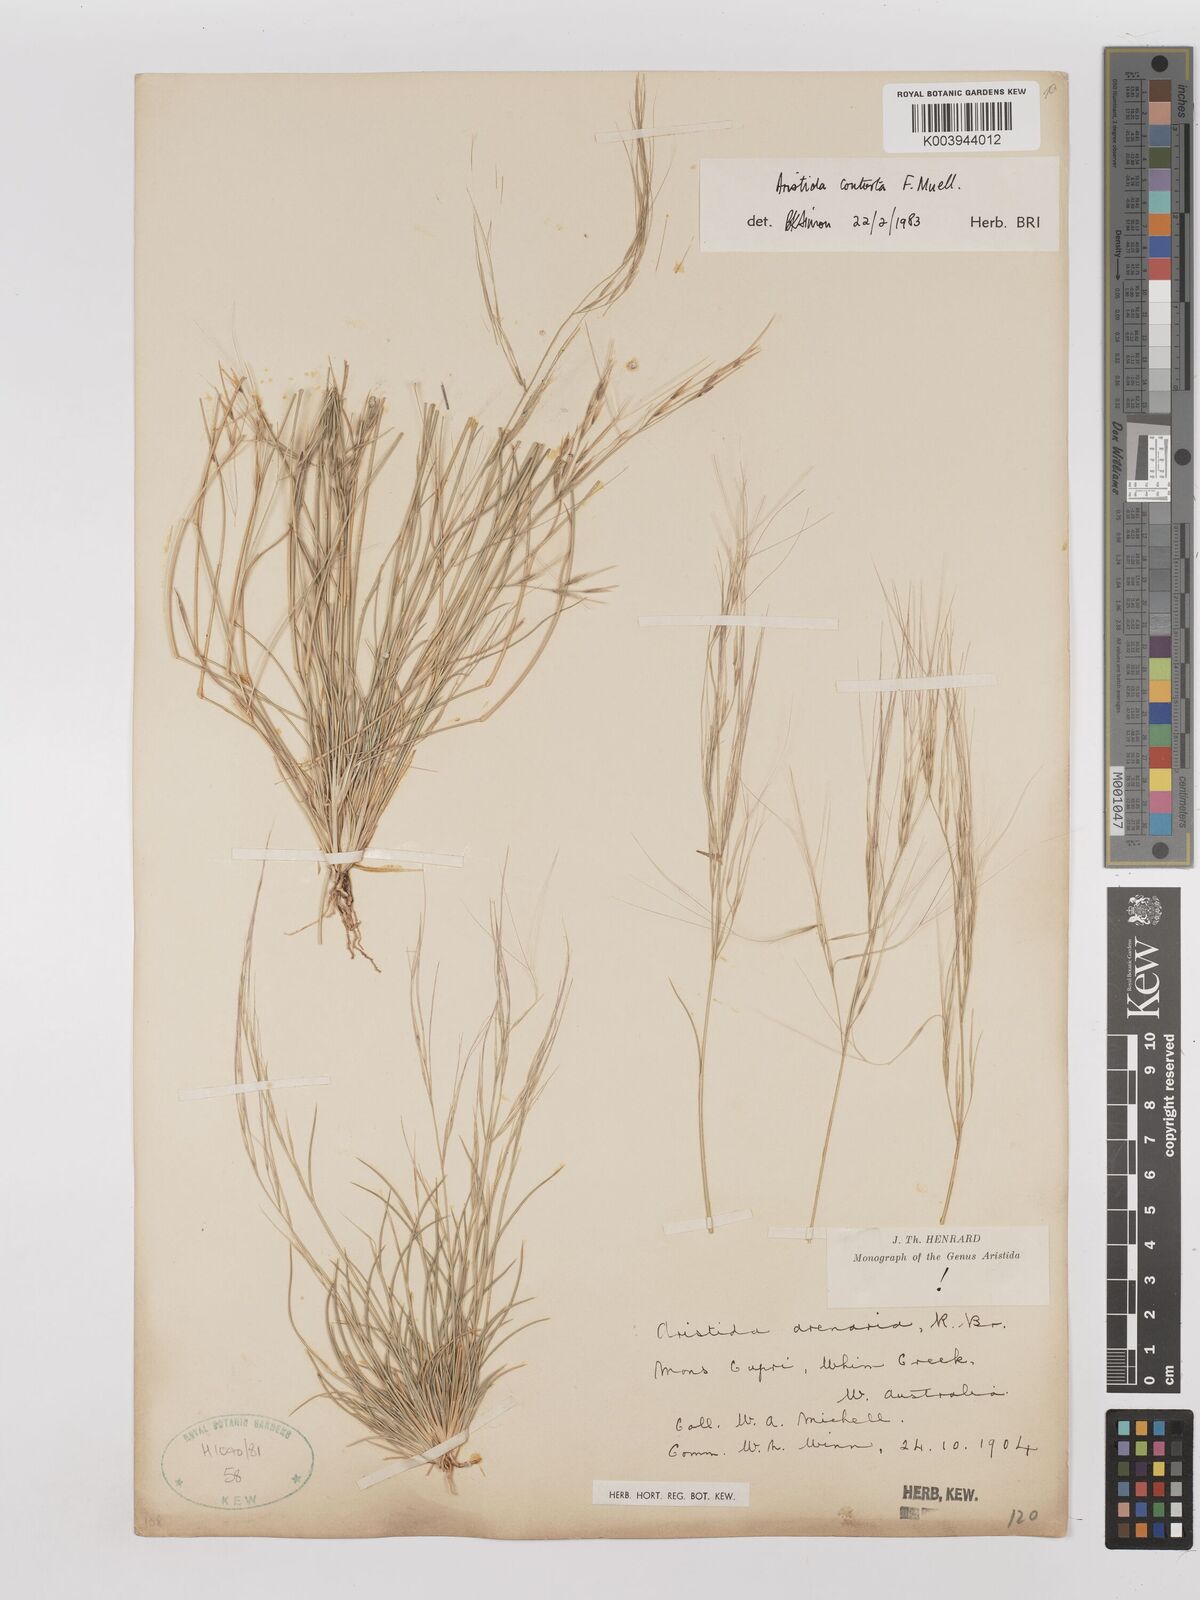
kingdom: Plantae
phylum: Tracheophyta
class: Liliopsida
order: Poales
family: Poaceae
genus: Aristida
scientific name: Aristida contorta
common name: Bunch kerosene grass
